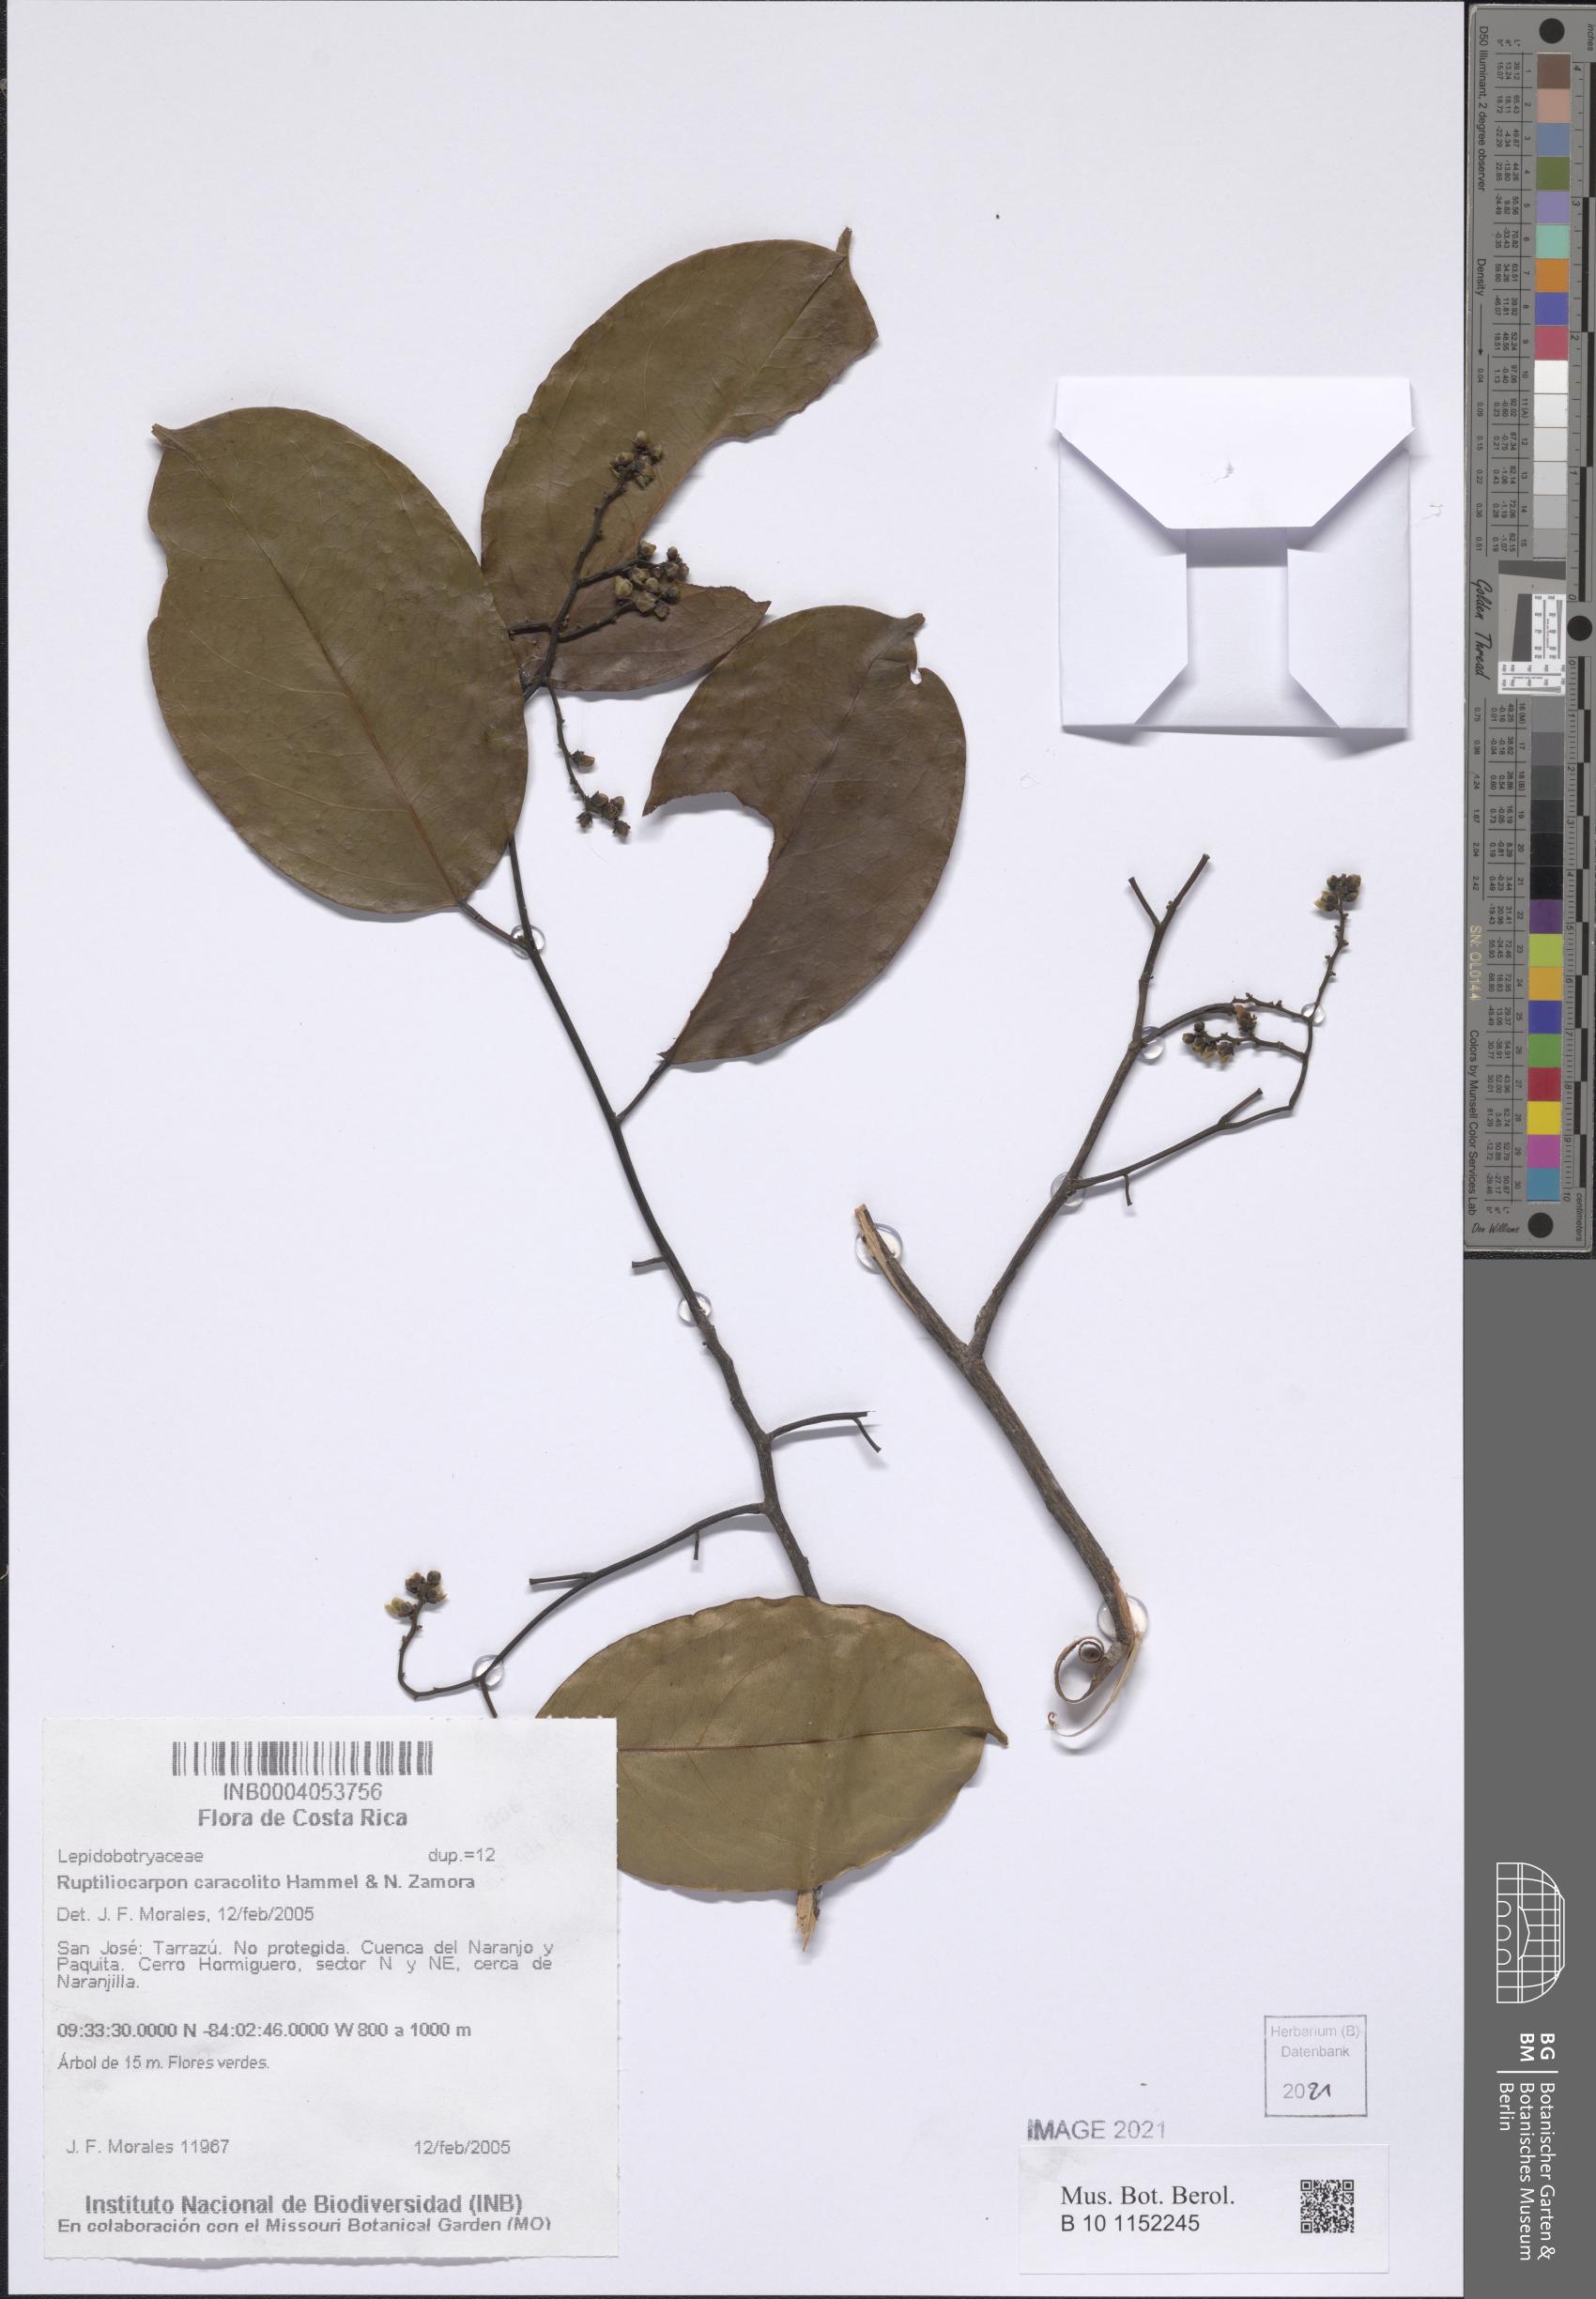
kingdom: Plantae
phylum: Tracheophyta
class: Magnoliopsida
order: Celastrales
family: Lepidobotryaceae
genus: Ruptiliocarpon
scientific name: Ruptiliocarpon caracolito
